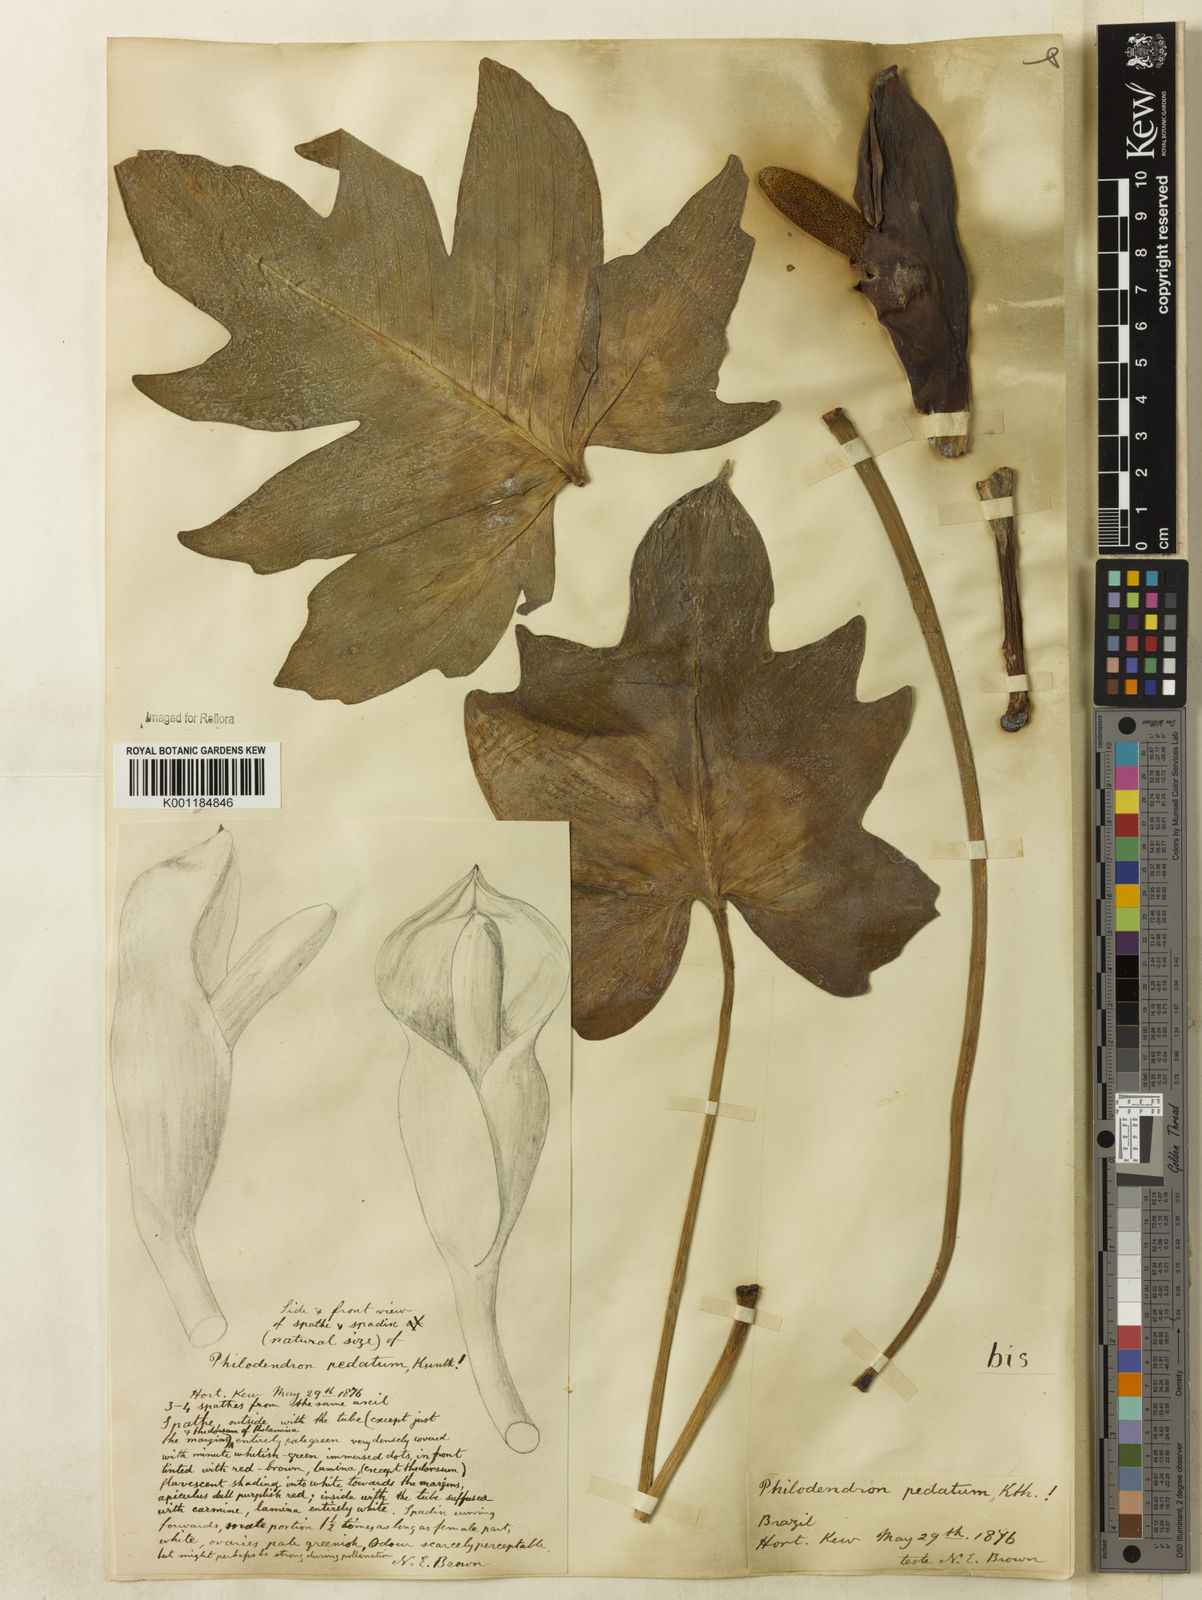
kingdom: Plantae
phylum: Tracheophyta
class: Liliopsida
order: Alismatales
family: Araceae
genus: Philodendron
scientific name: Philodendron pedatum
